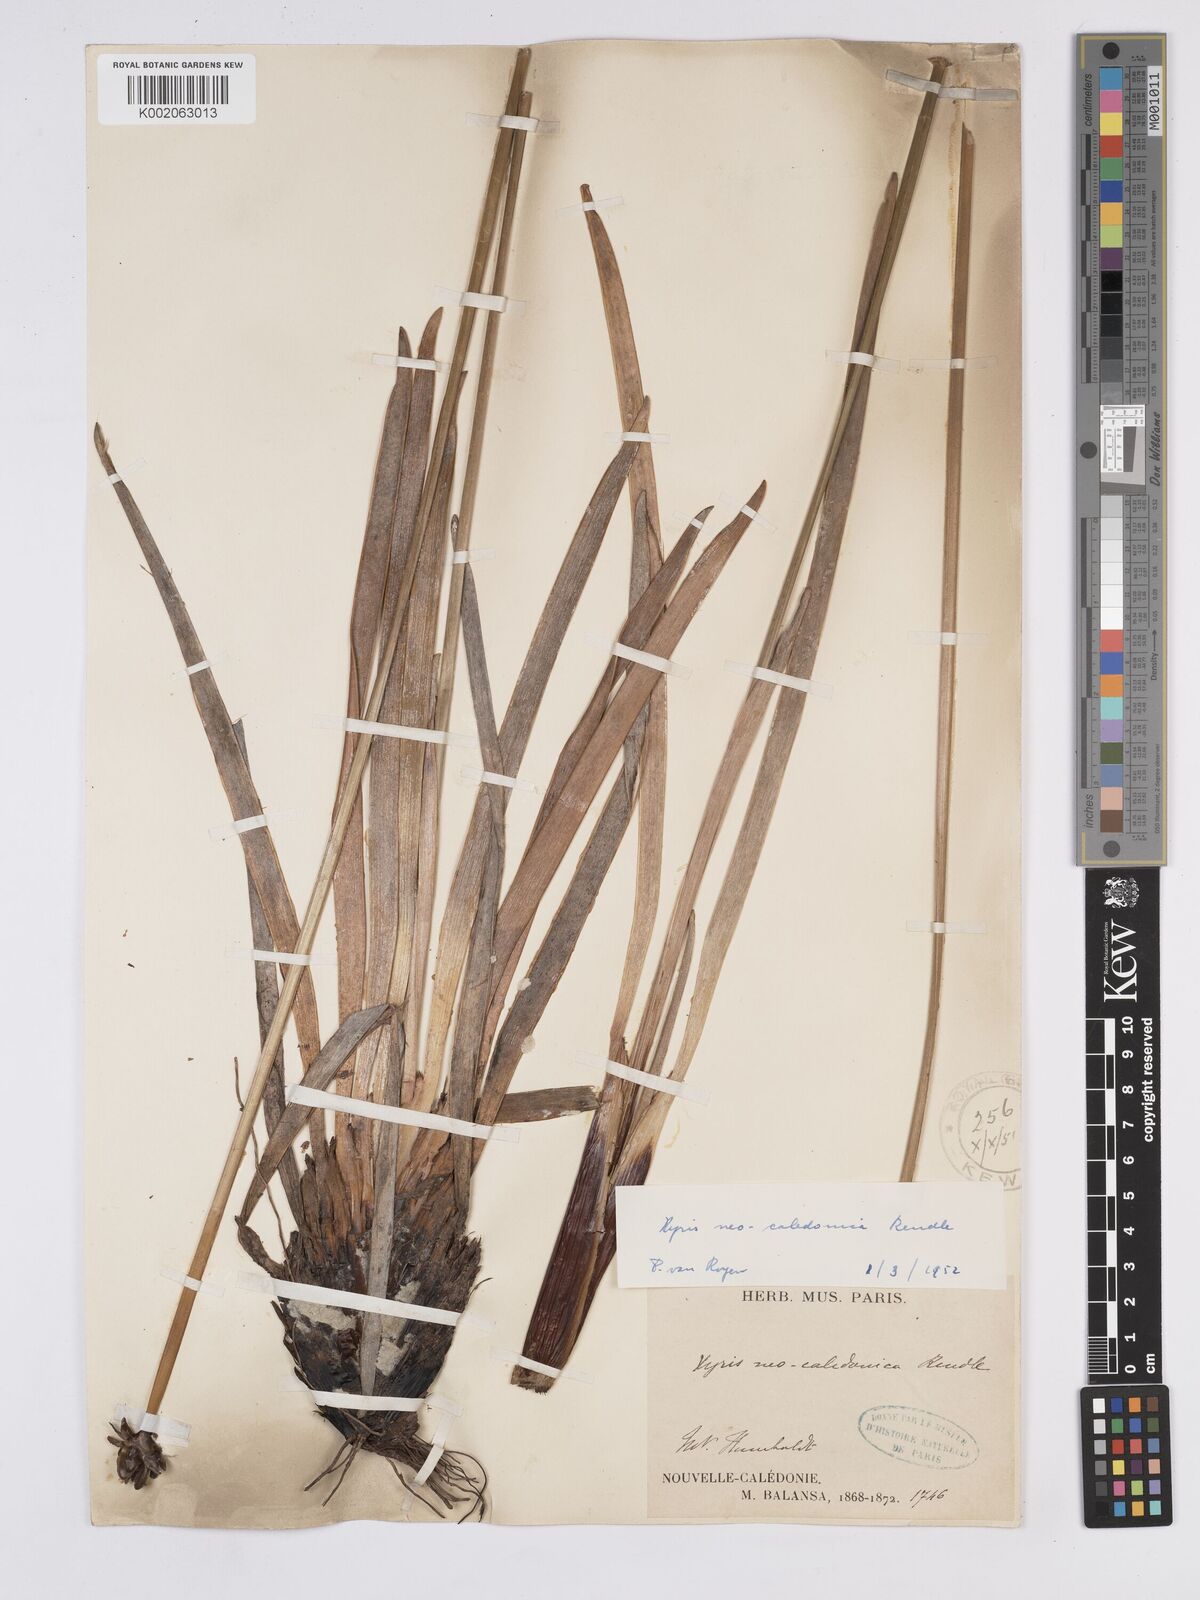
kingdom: Plantae
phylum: Tracheophyta
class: Liliopsida
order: Poales
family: Xyridaceae
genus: Xyris
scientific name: Xyris neocaledonica
